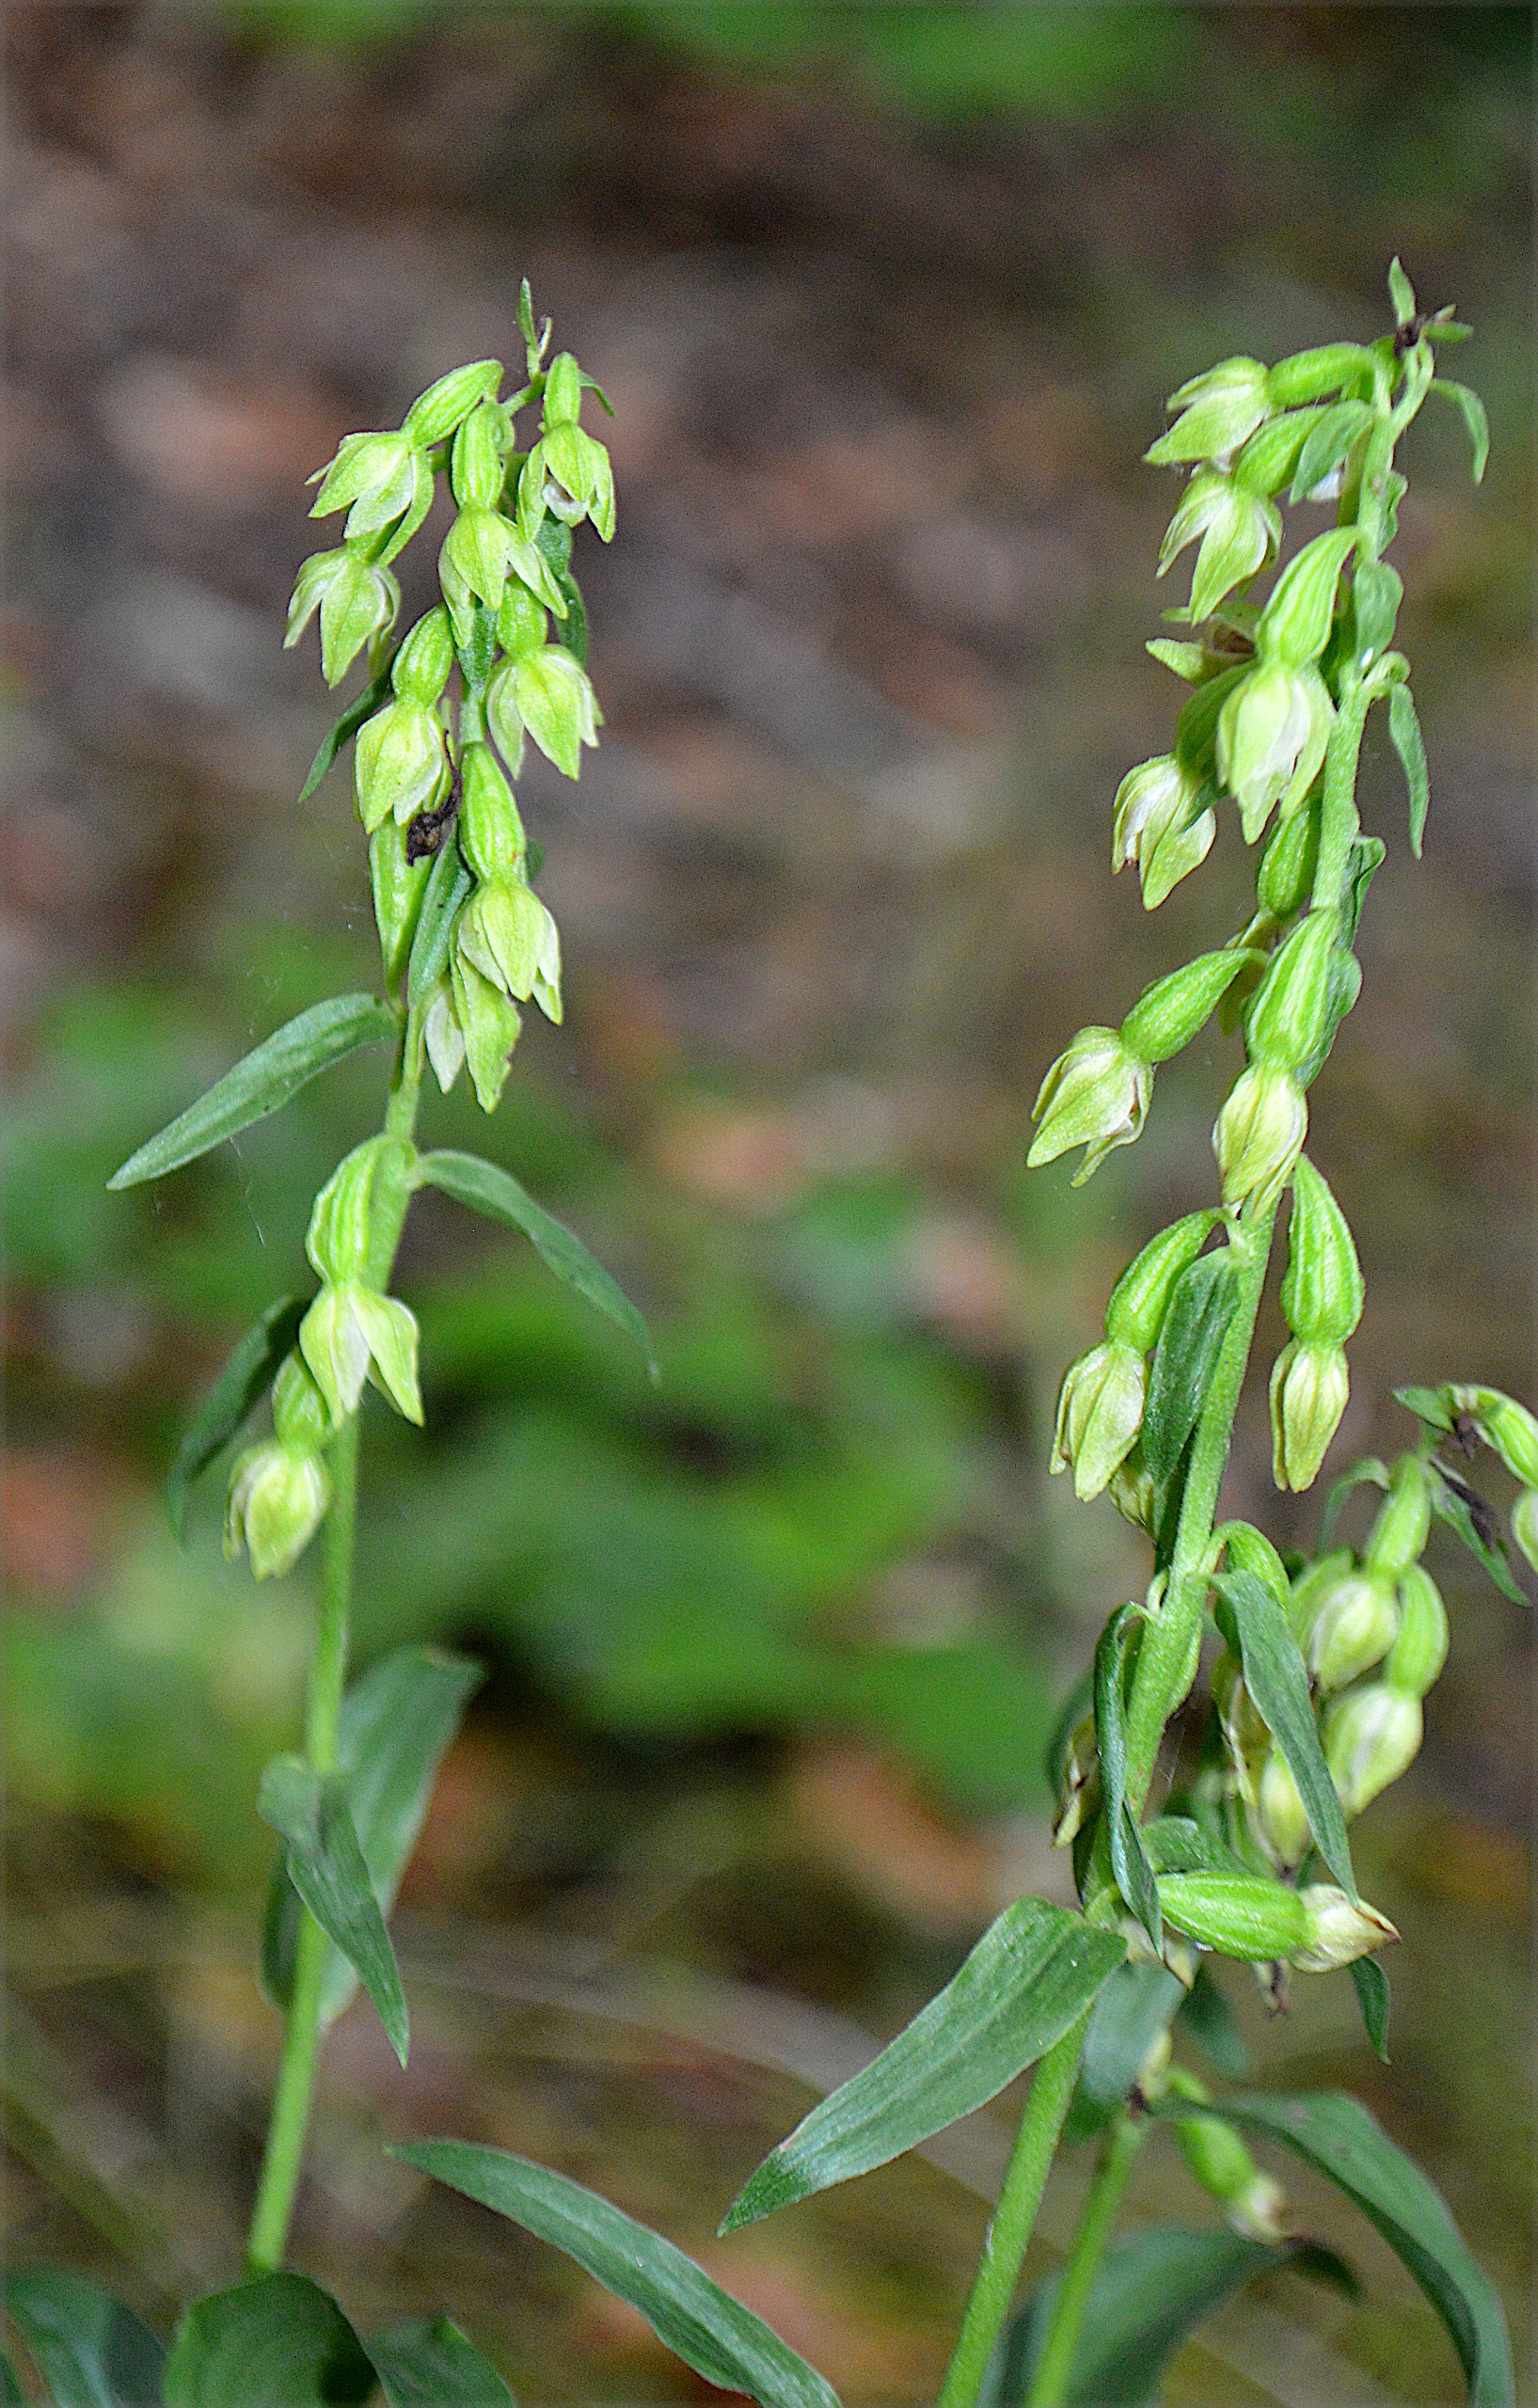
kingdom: Plantae
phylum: Tracheophyta
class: Liliopsida
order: Asparagales
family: Orchidaceae
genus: Epipactis
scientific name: Epipactis phyllanthes
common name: Nikkende hullæbe
